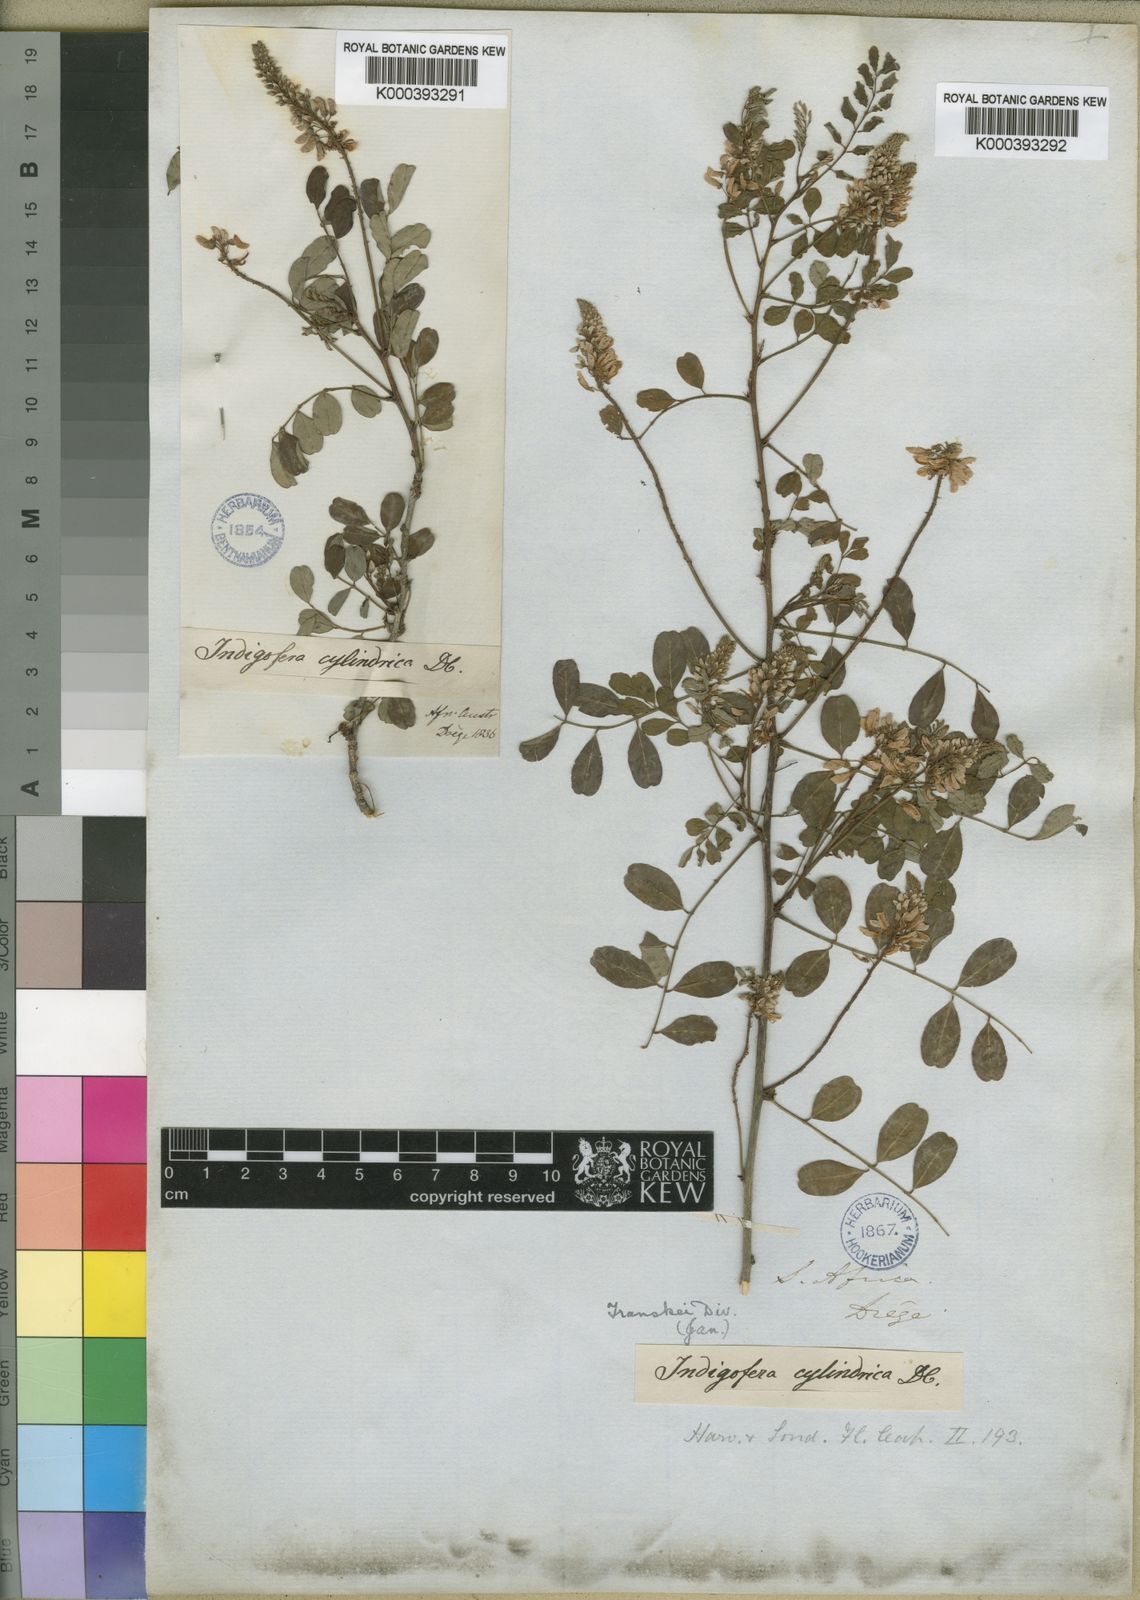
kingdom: Plantae
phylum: Tracheophyta
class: Magnoliopsida
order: Fabales
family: Fabaceae
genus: Indigofera
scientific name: Indigofera frutescens
